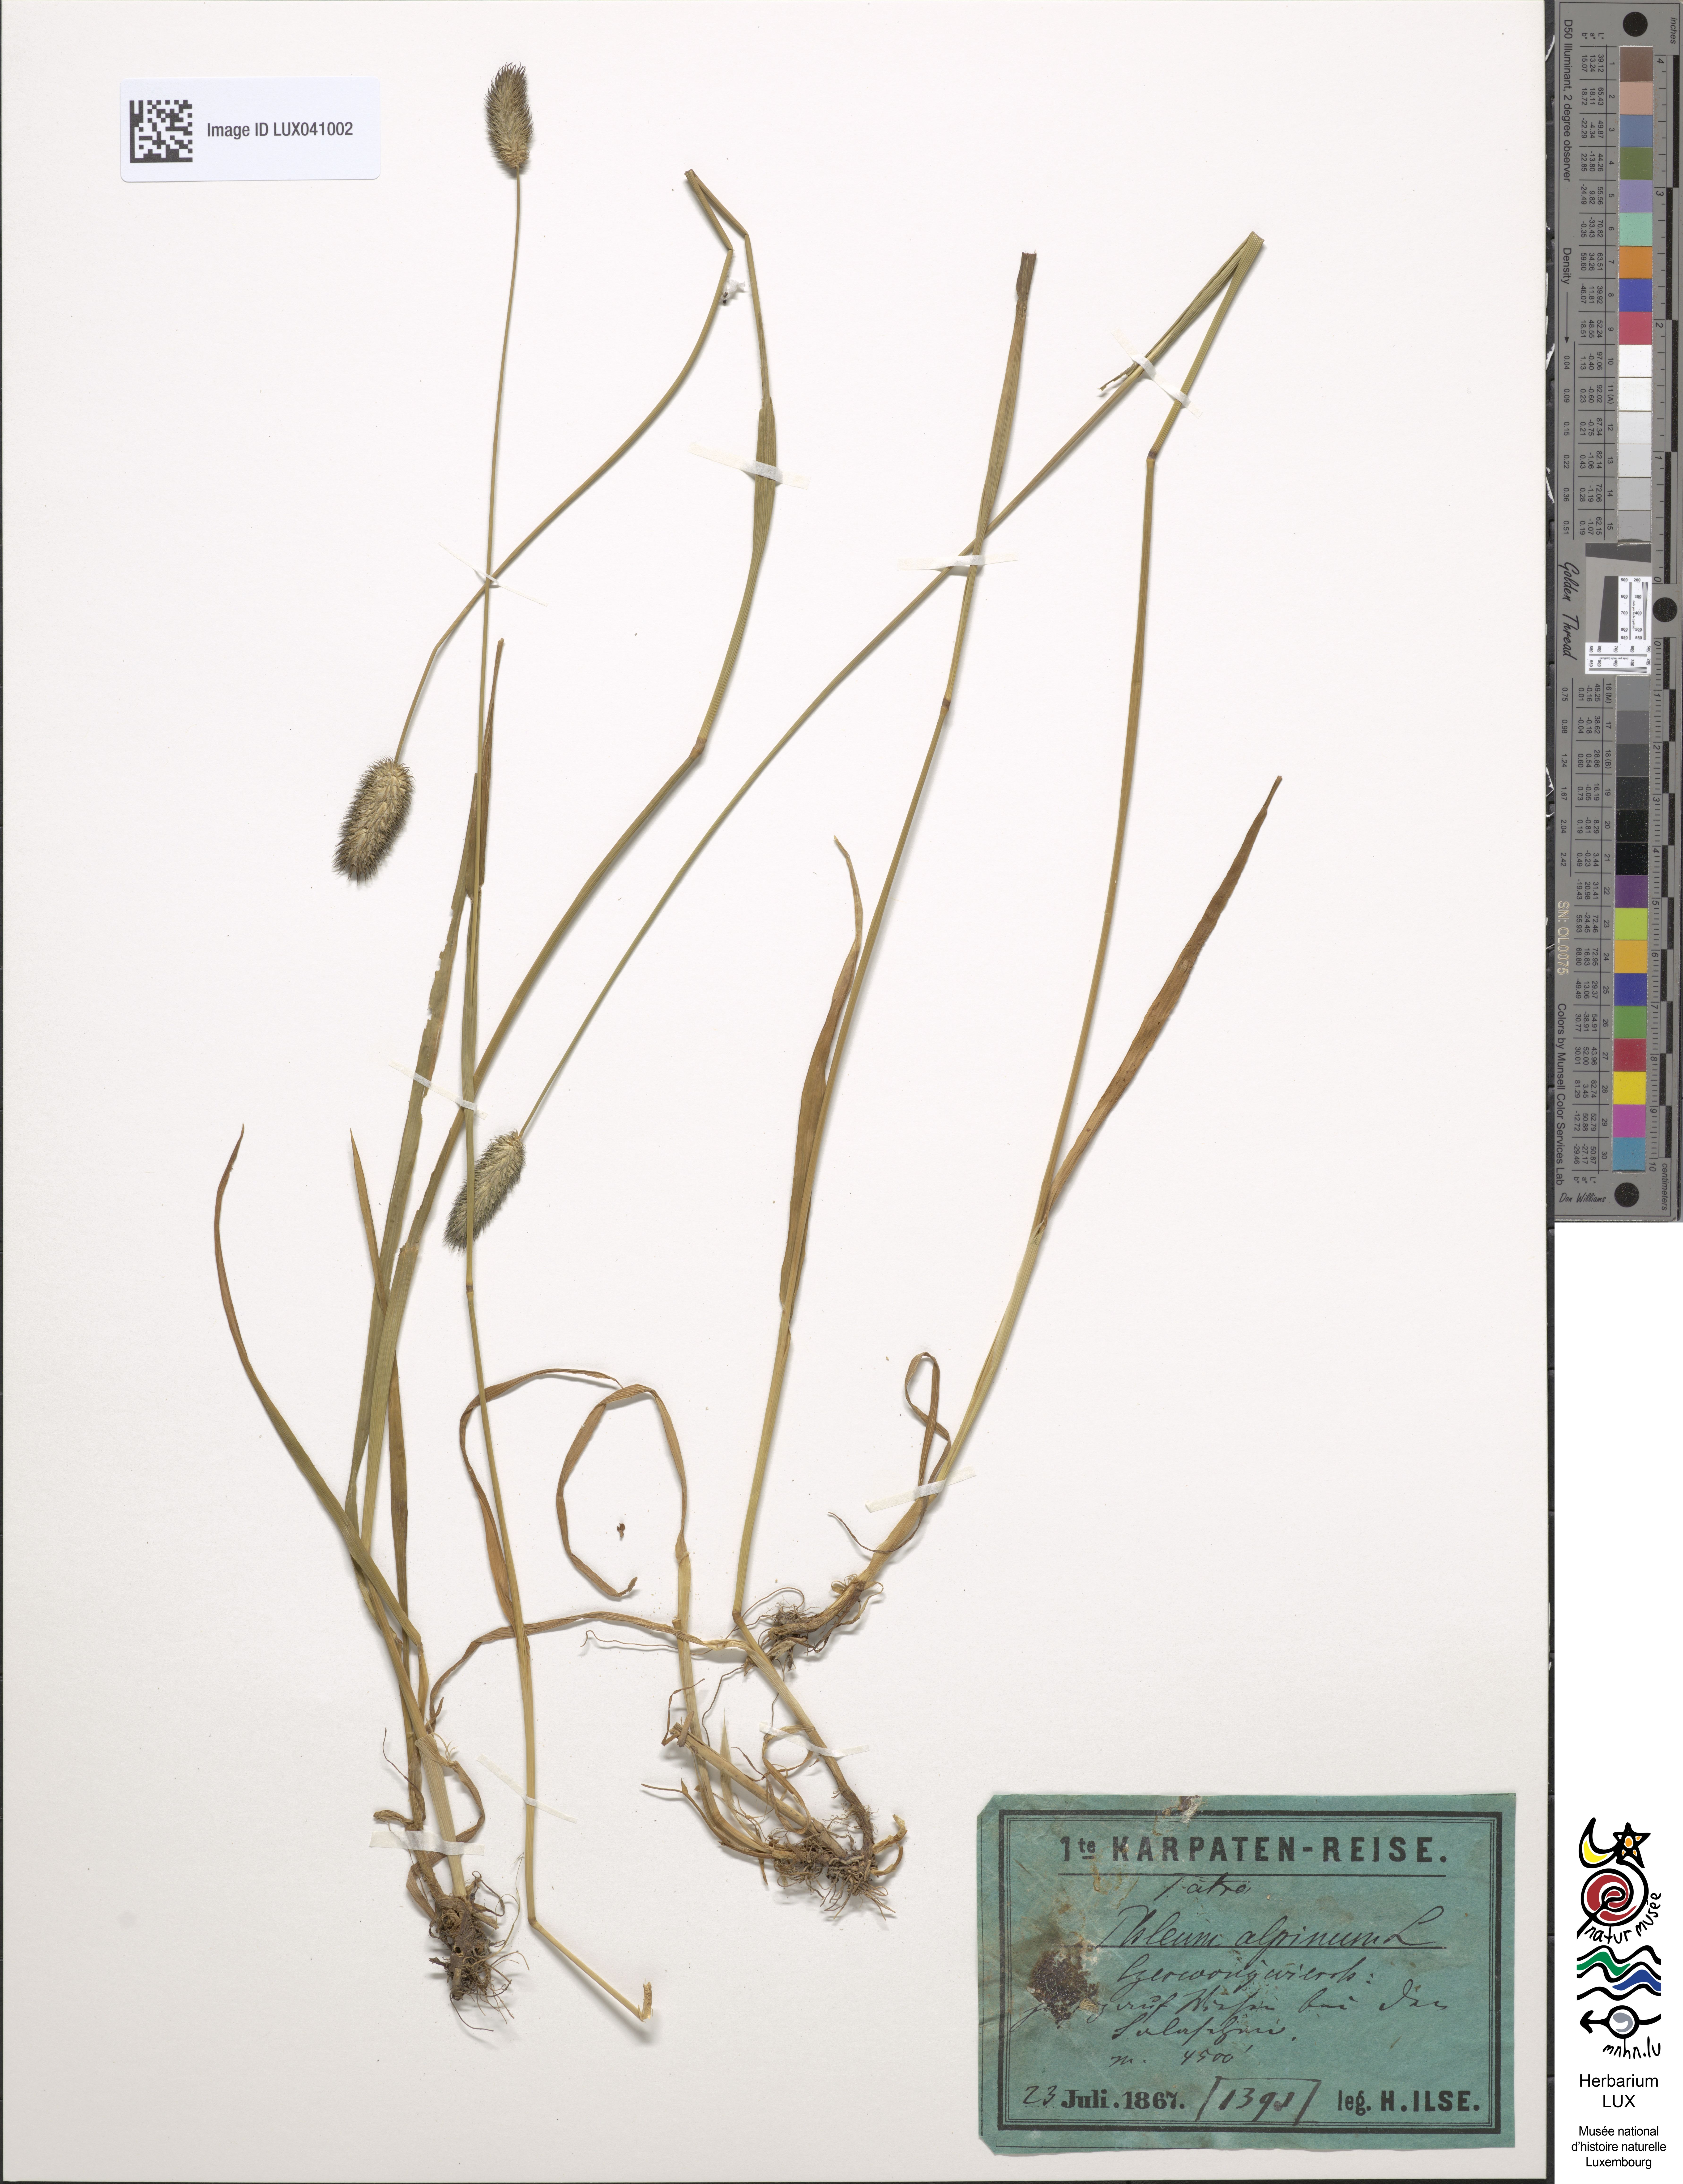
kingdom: Plantae
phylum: Tracheophyta
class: Liliopsida
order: Poales
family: Poaceae
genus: Phleum
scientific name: Phleum alpinum
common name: Alpine cat's-tail
